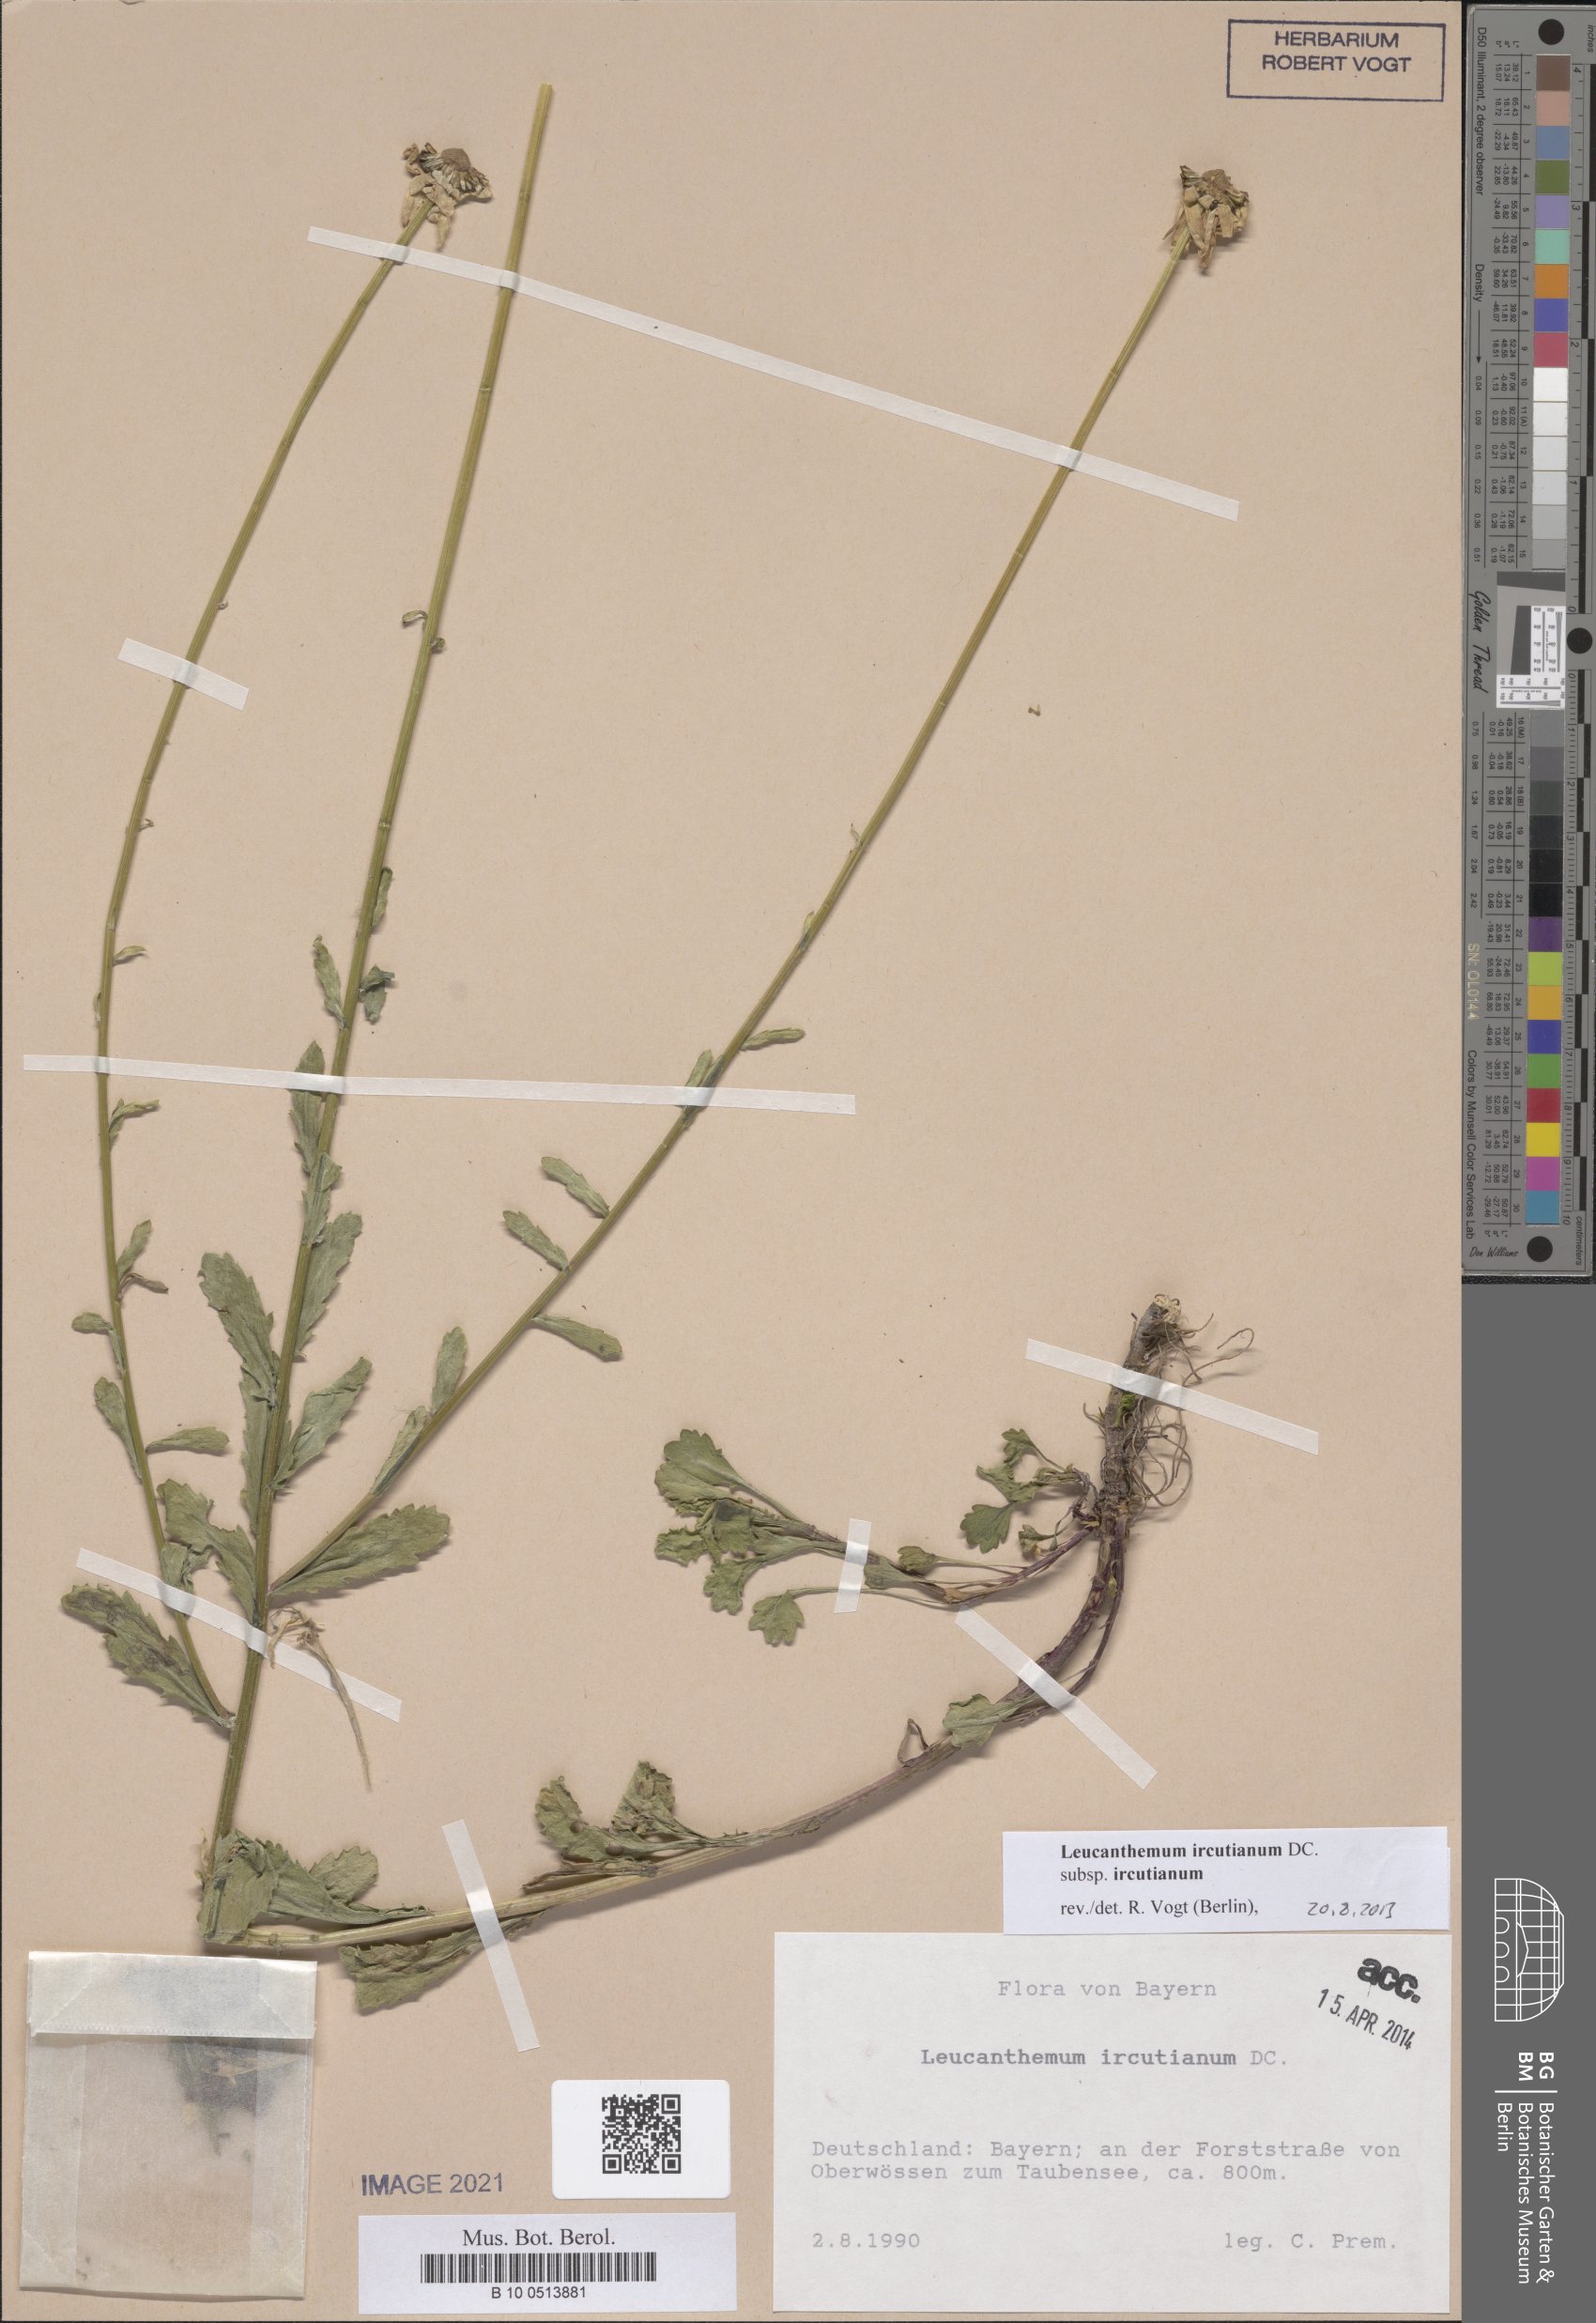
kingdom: Plantae
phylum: Tracheophyta
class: Magnoliopsida
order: Asterales
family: Asteraceae
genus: Leucanthemum
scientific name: Leucanthemum ircutianum
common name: Daisy
